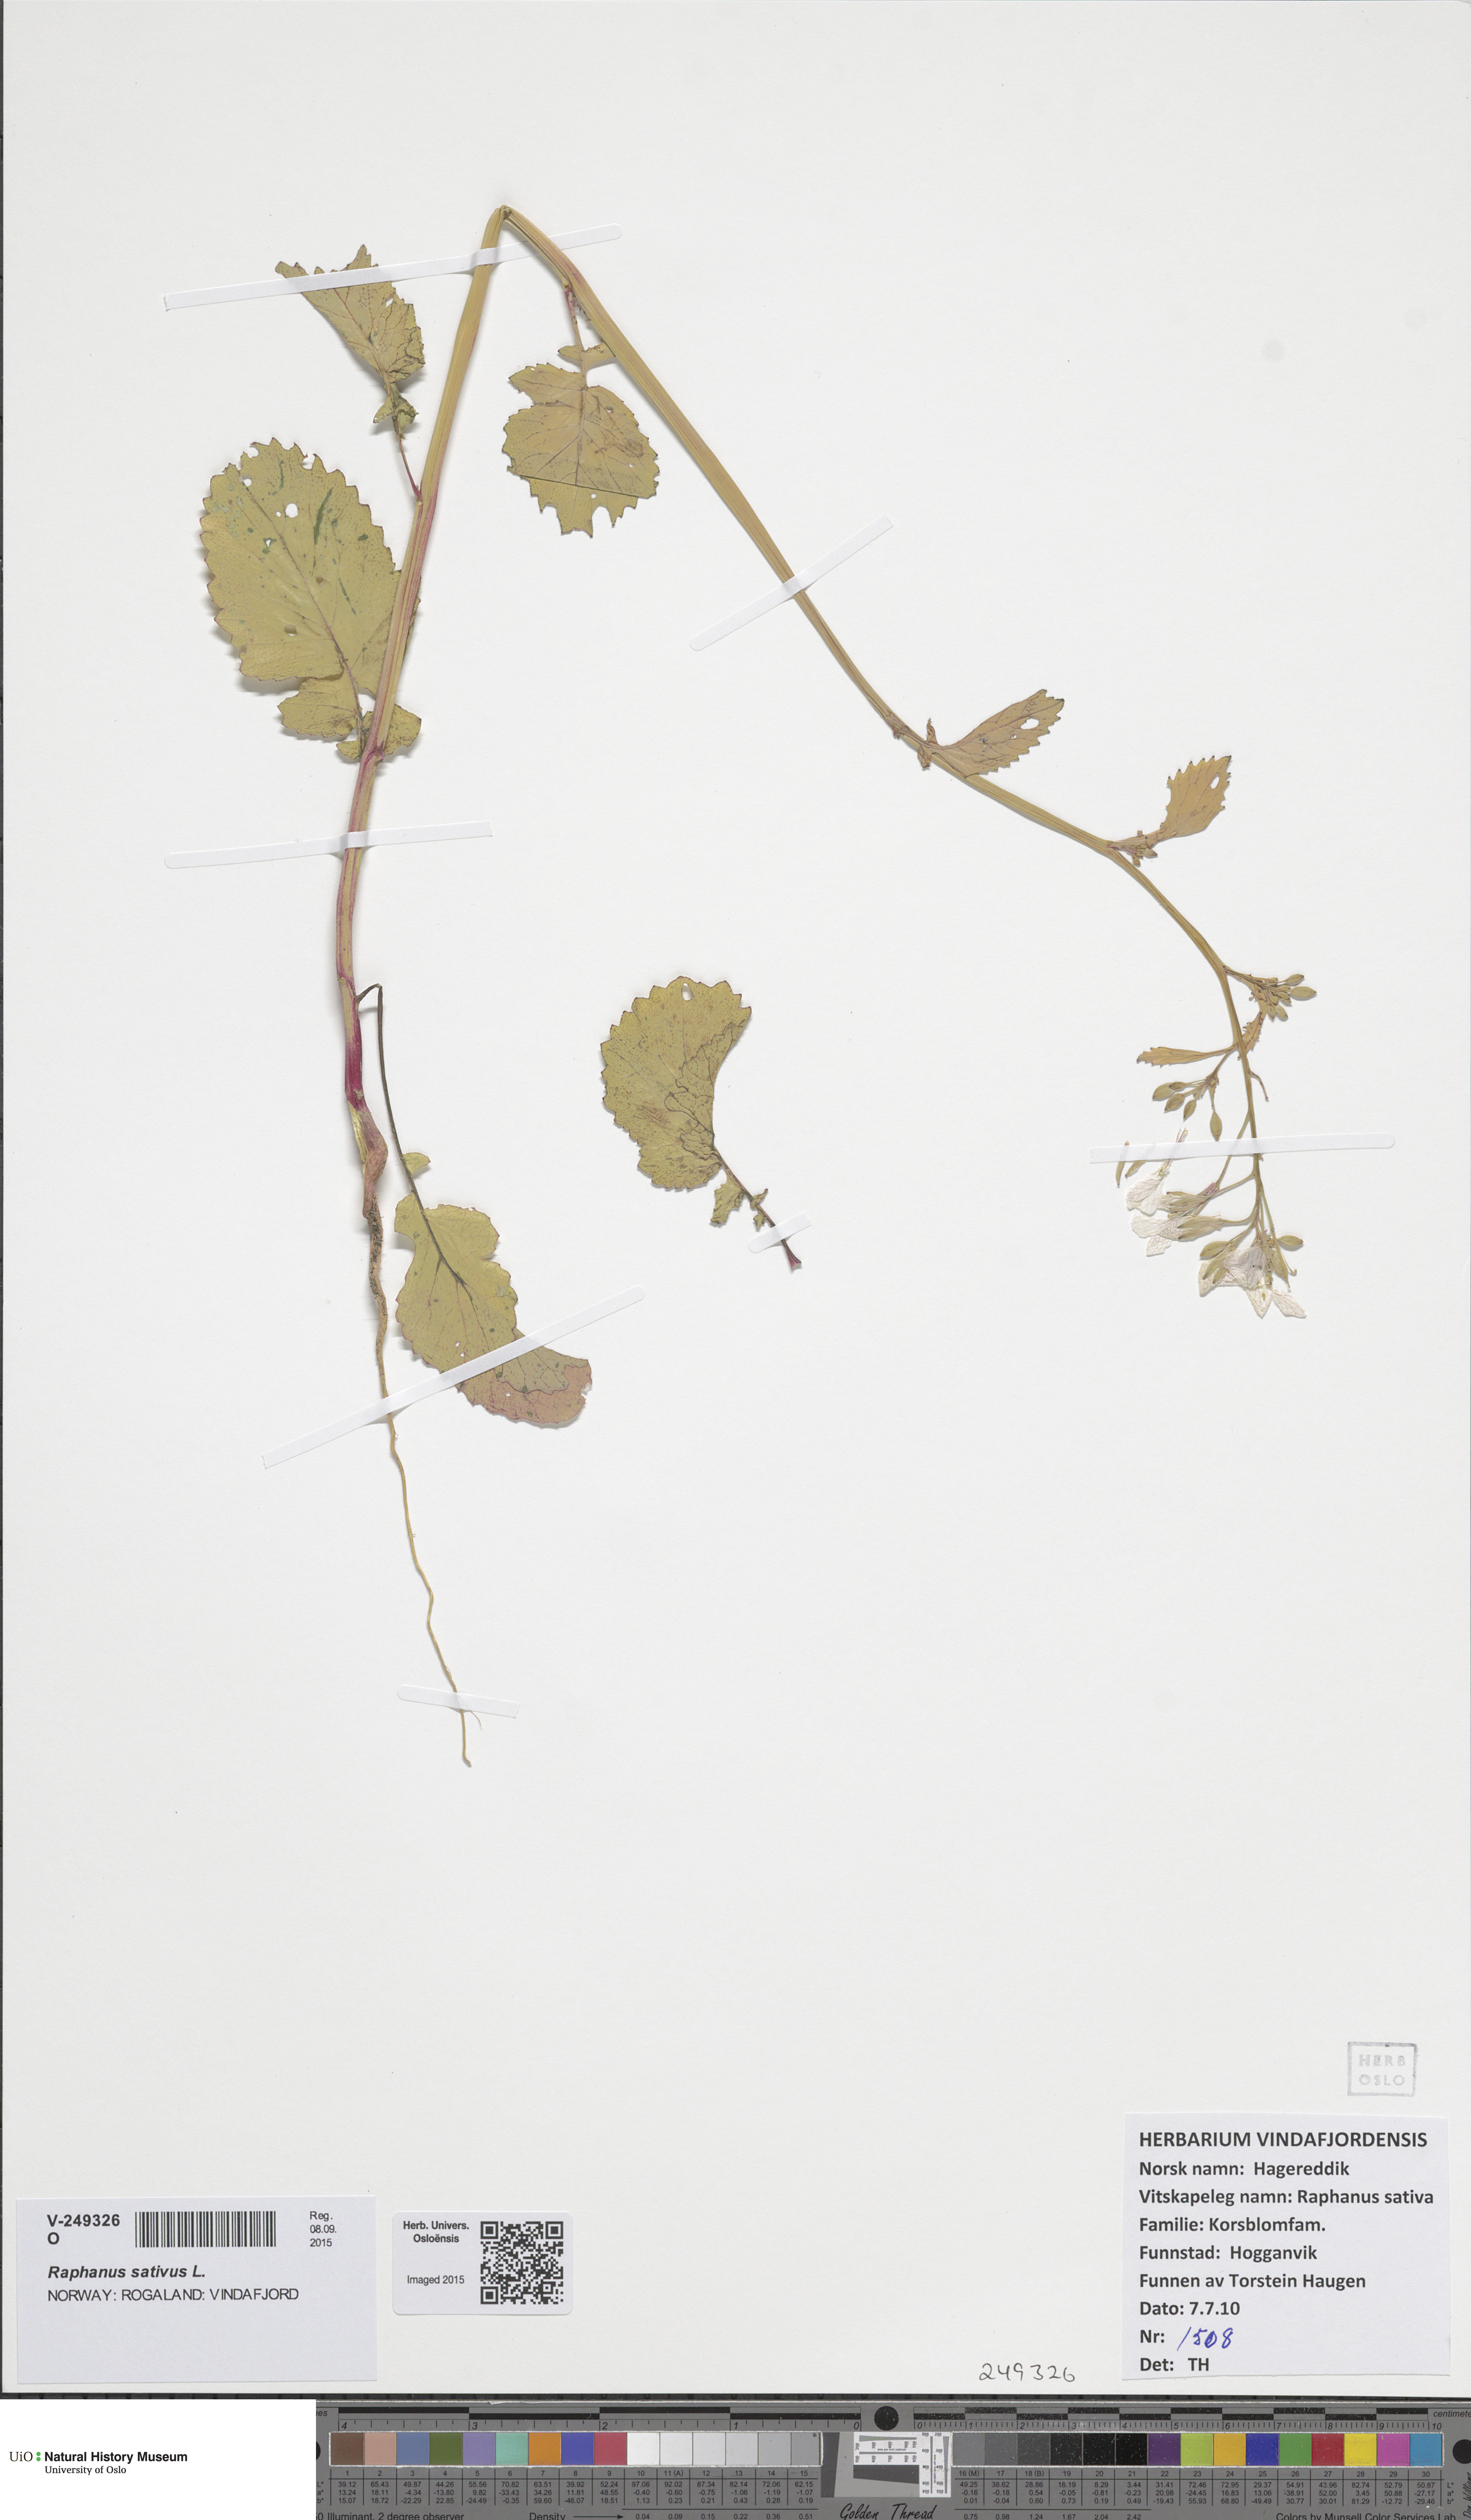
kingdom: Plantae
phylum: Tracheophyta
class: Magnoliopsida
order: Brassicales
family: Brassicaceae
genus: Raphanus
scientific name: Raphanus sativus
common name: Cultivated radish
